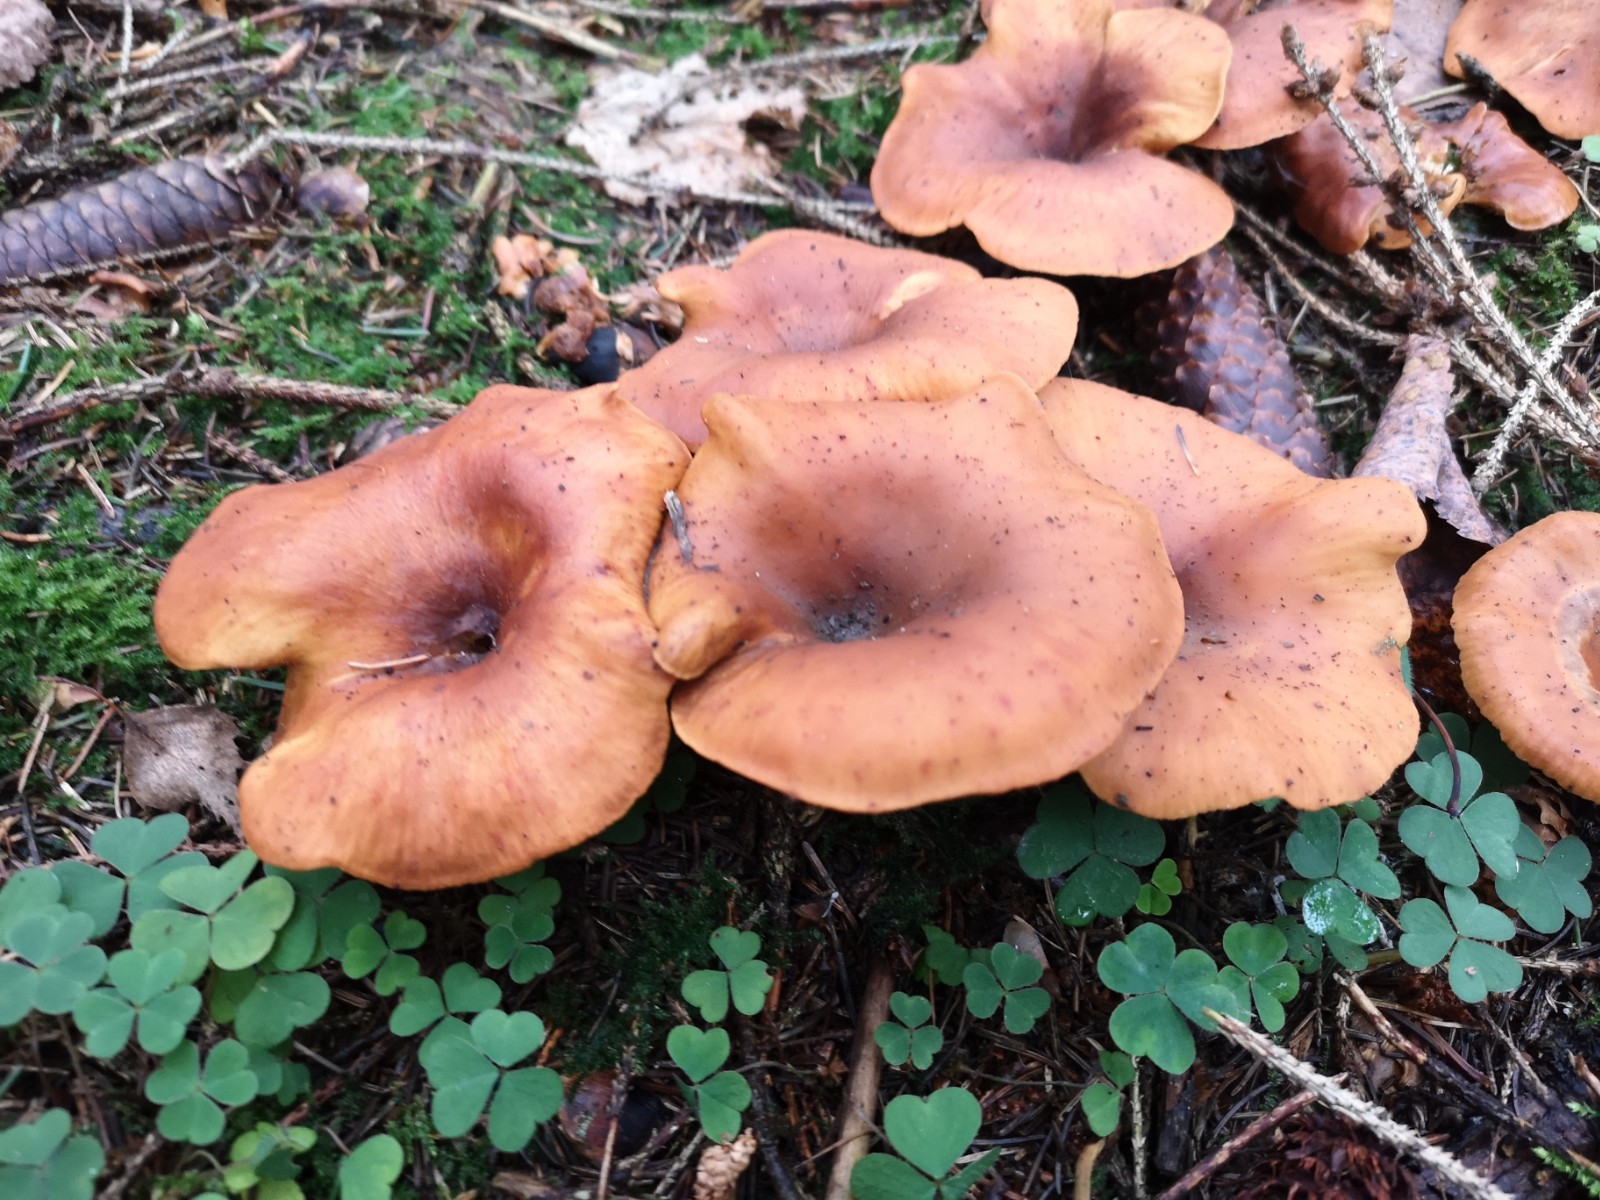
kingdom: Fungi
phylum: Basidiomycota
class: Agaricomycetes
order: Agaricales
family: Tricholomataceae
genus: Paralepista
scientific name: Paralepista flaccida
